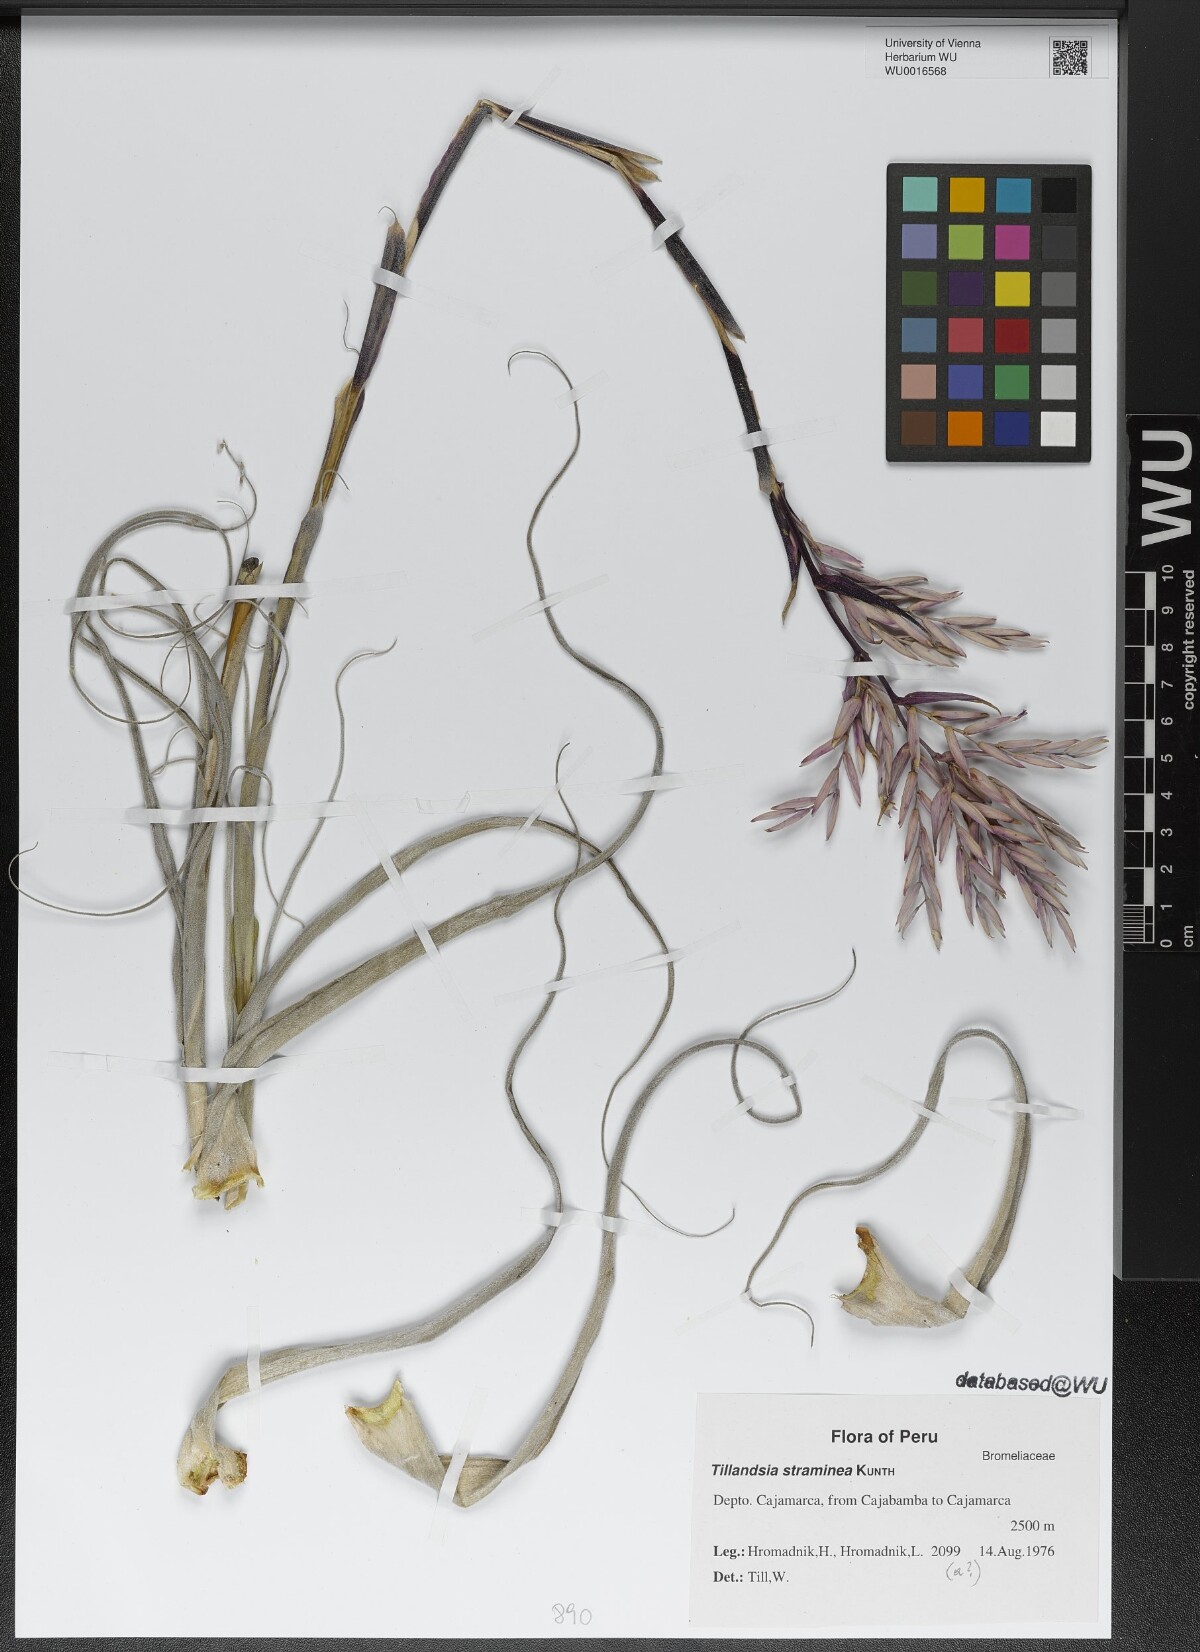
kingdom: Plantae
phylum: Tracheophyta
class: Liliopsida
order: Poales
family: Bromeliaceae
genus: Tillandsia
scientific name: Tillandsia straminea
